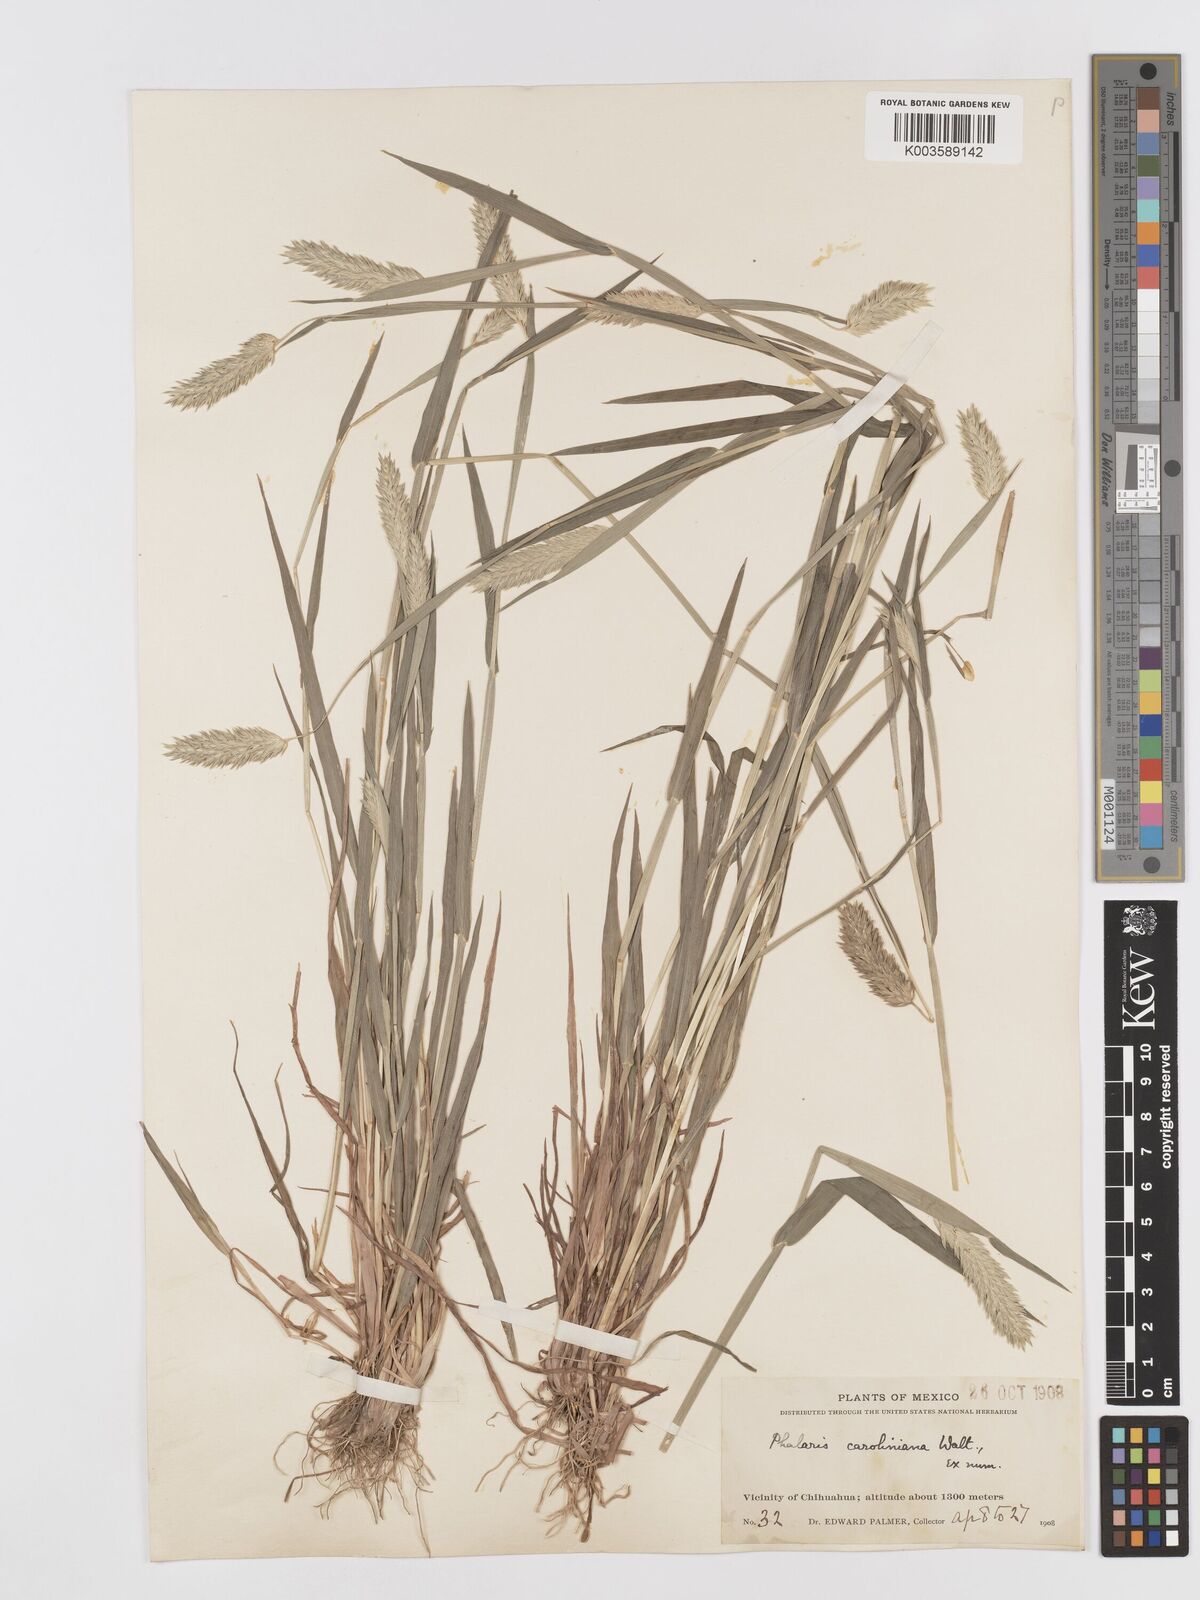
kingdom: Plantae
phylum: Tracheophyta
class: Liliopsida
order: Poales
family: Poaceae
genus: Phalaris
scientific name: Phalaris caroliniana
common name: May grass
